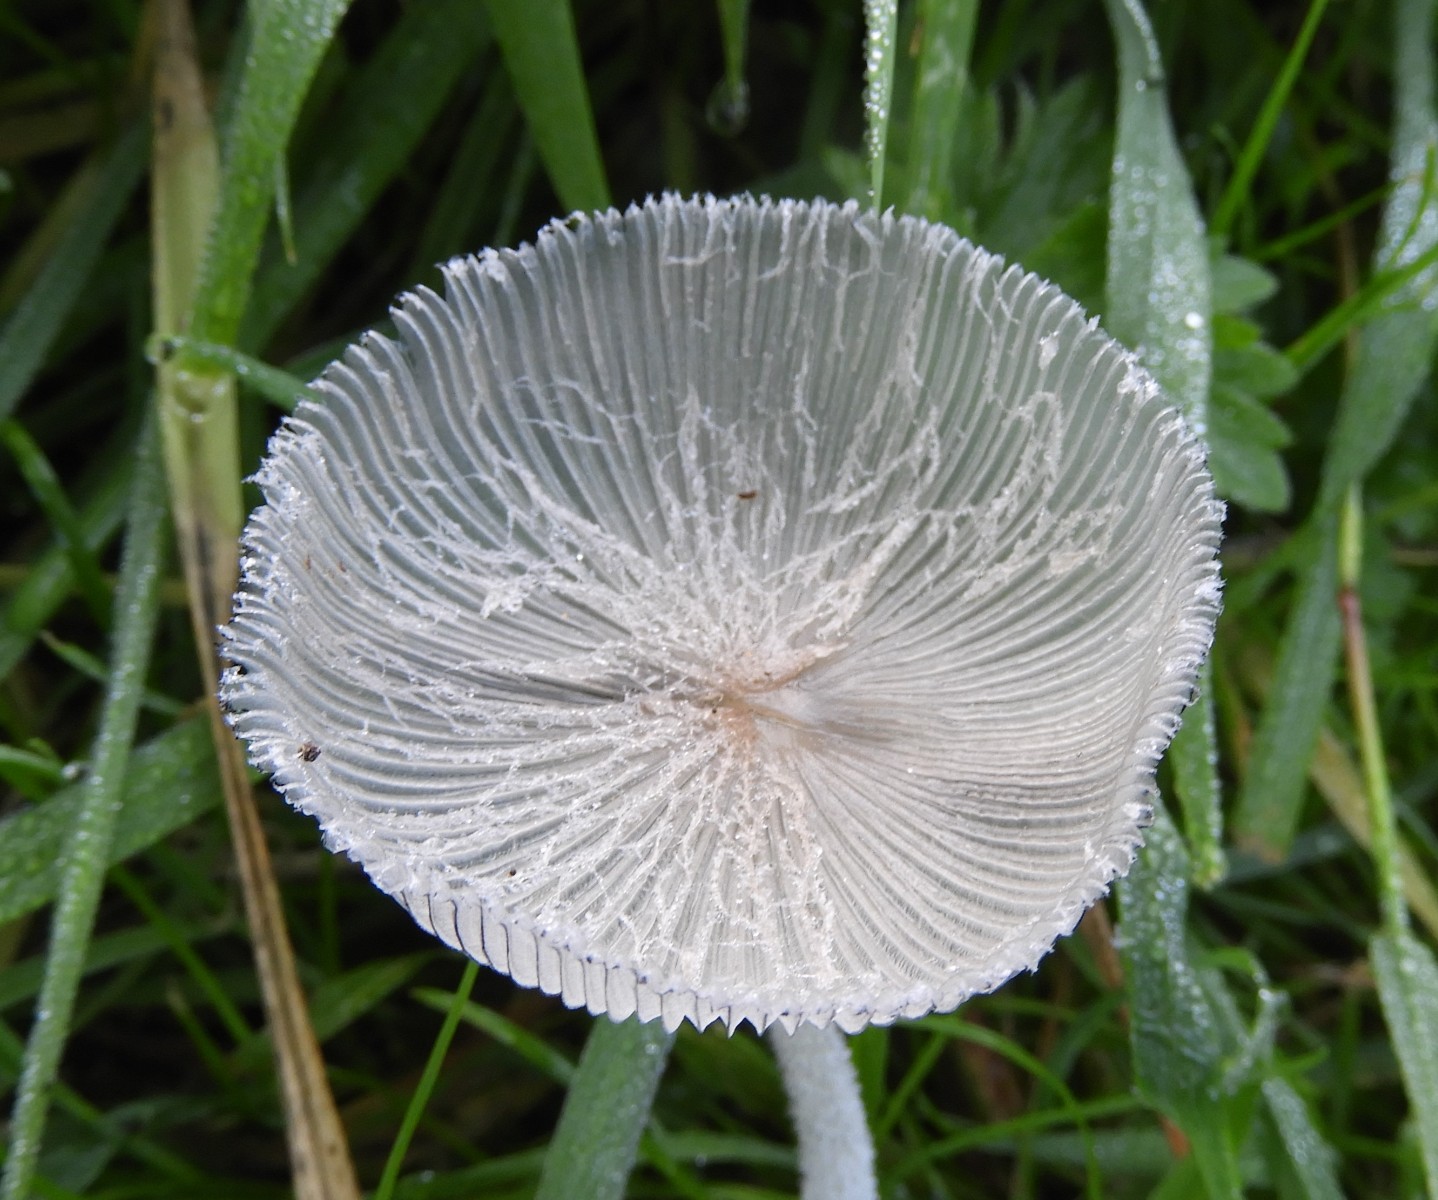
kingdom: Fungi
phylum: Basidiomycota
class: Agaricomycetes
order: Agaricales
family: Psathyrellaceae
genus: Coprinopsis
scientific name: Coprinopsis lagopus
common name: dunstokket blækhat
